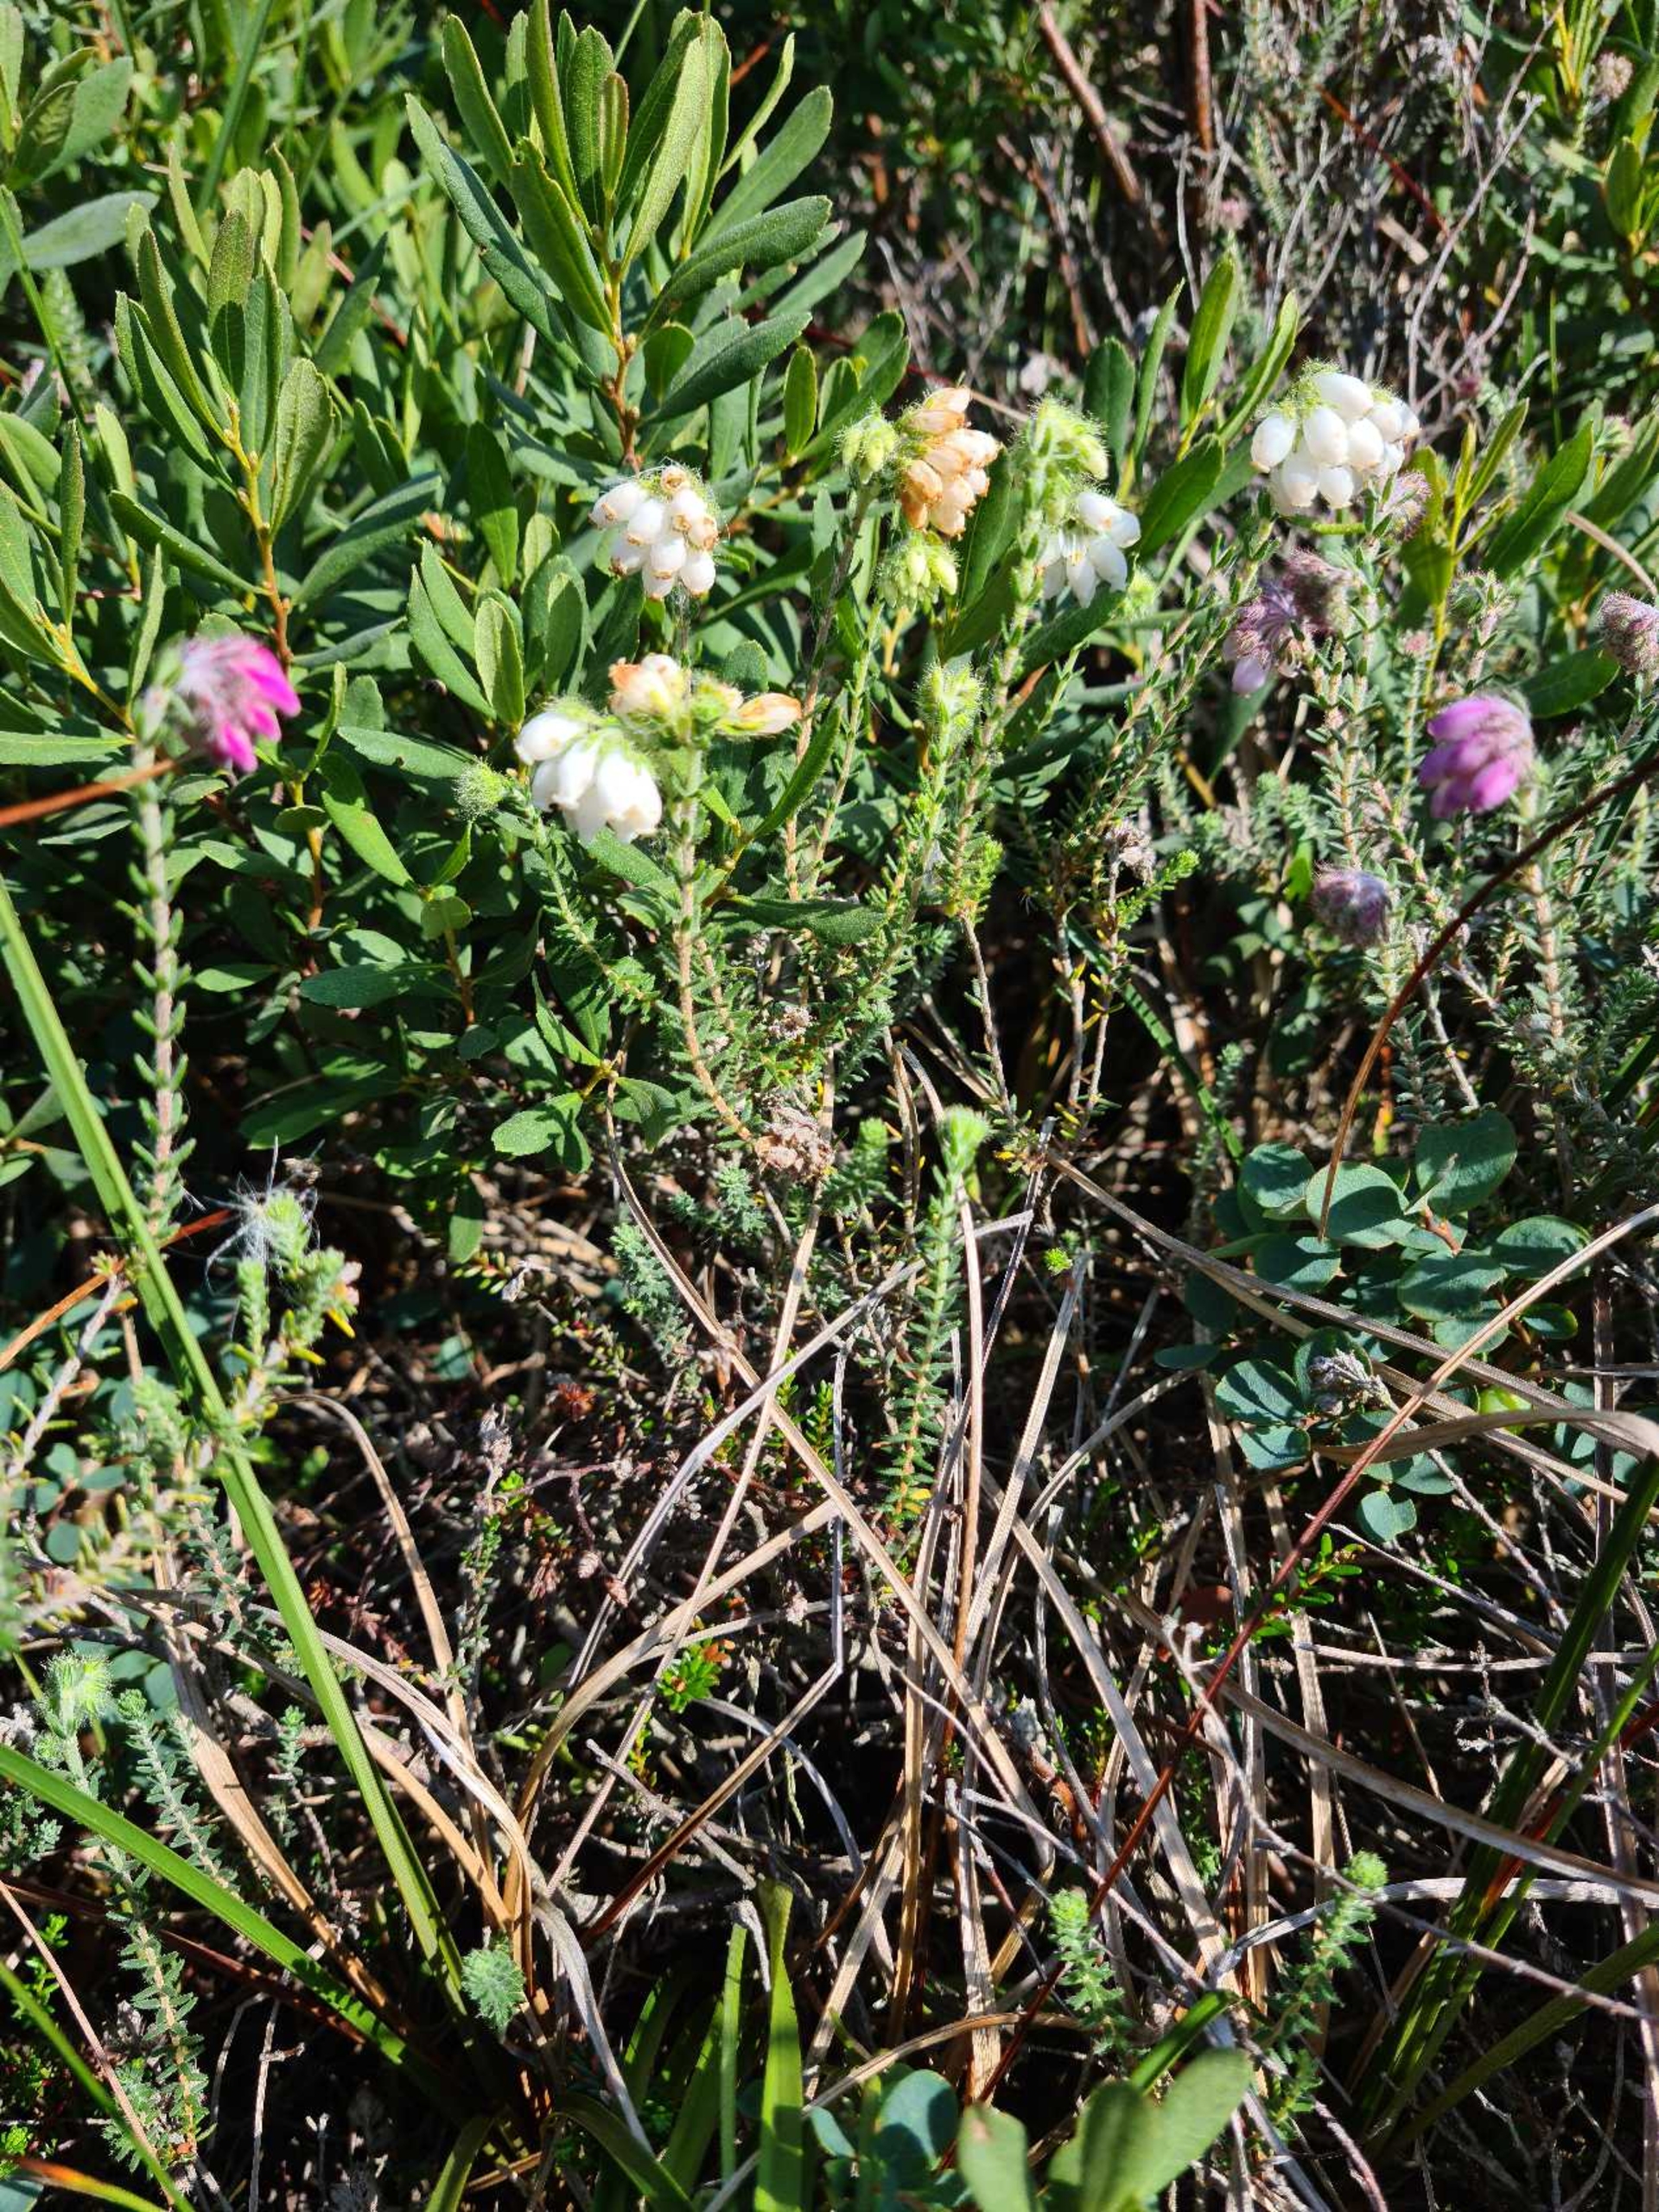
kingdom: Plantae
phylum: Tracheophyta
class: Magnoliopsida
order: Ericales
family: Ericaceae
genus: Erica
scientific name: Erica tetralix
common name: Klokkelyng
